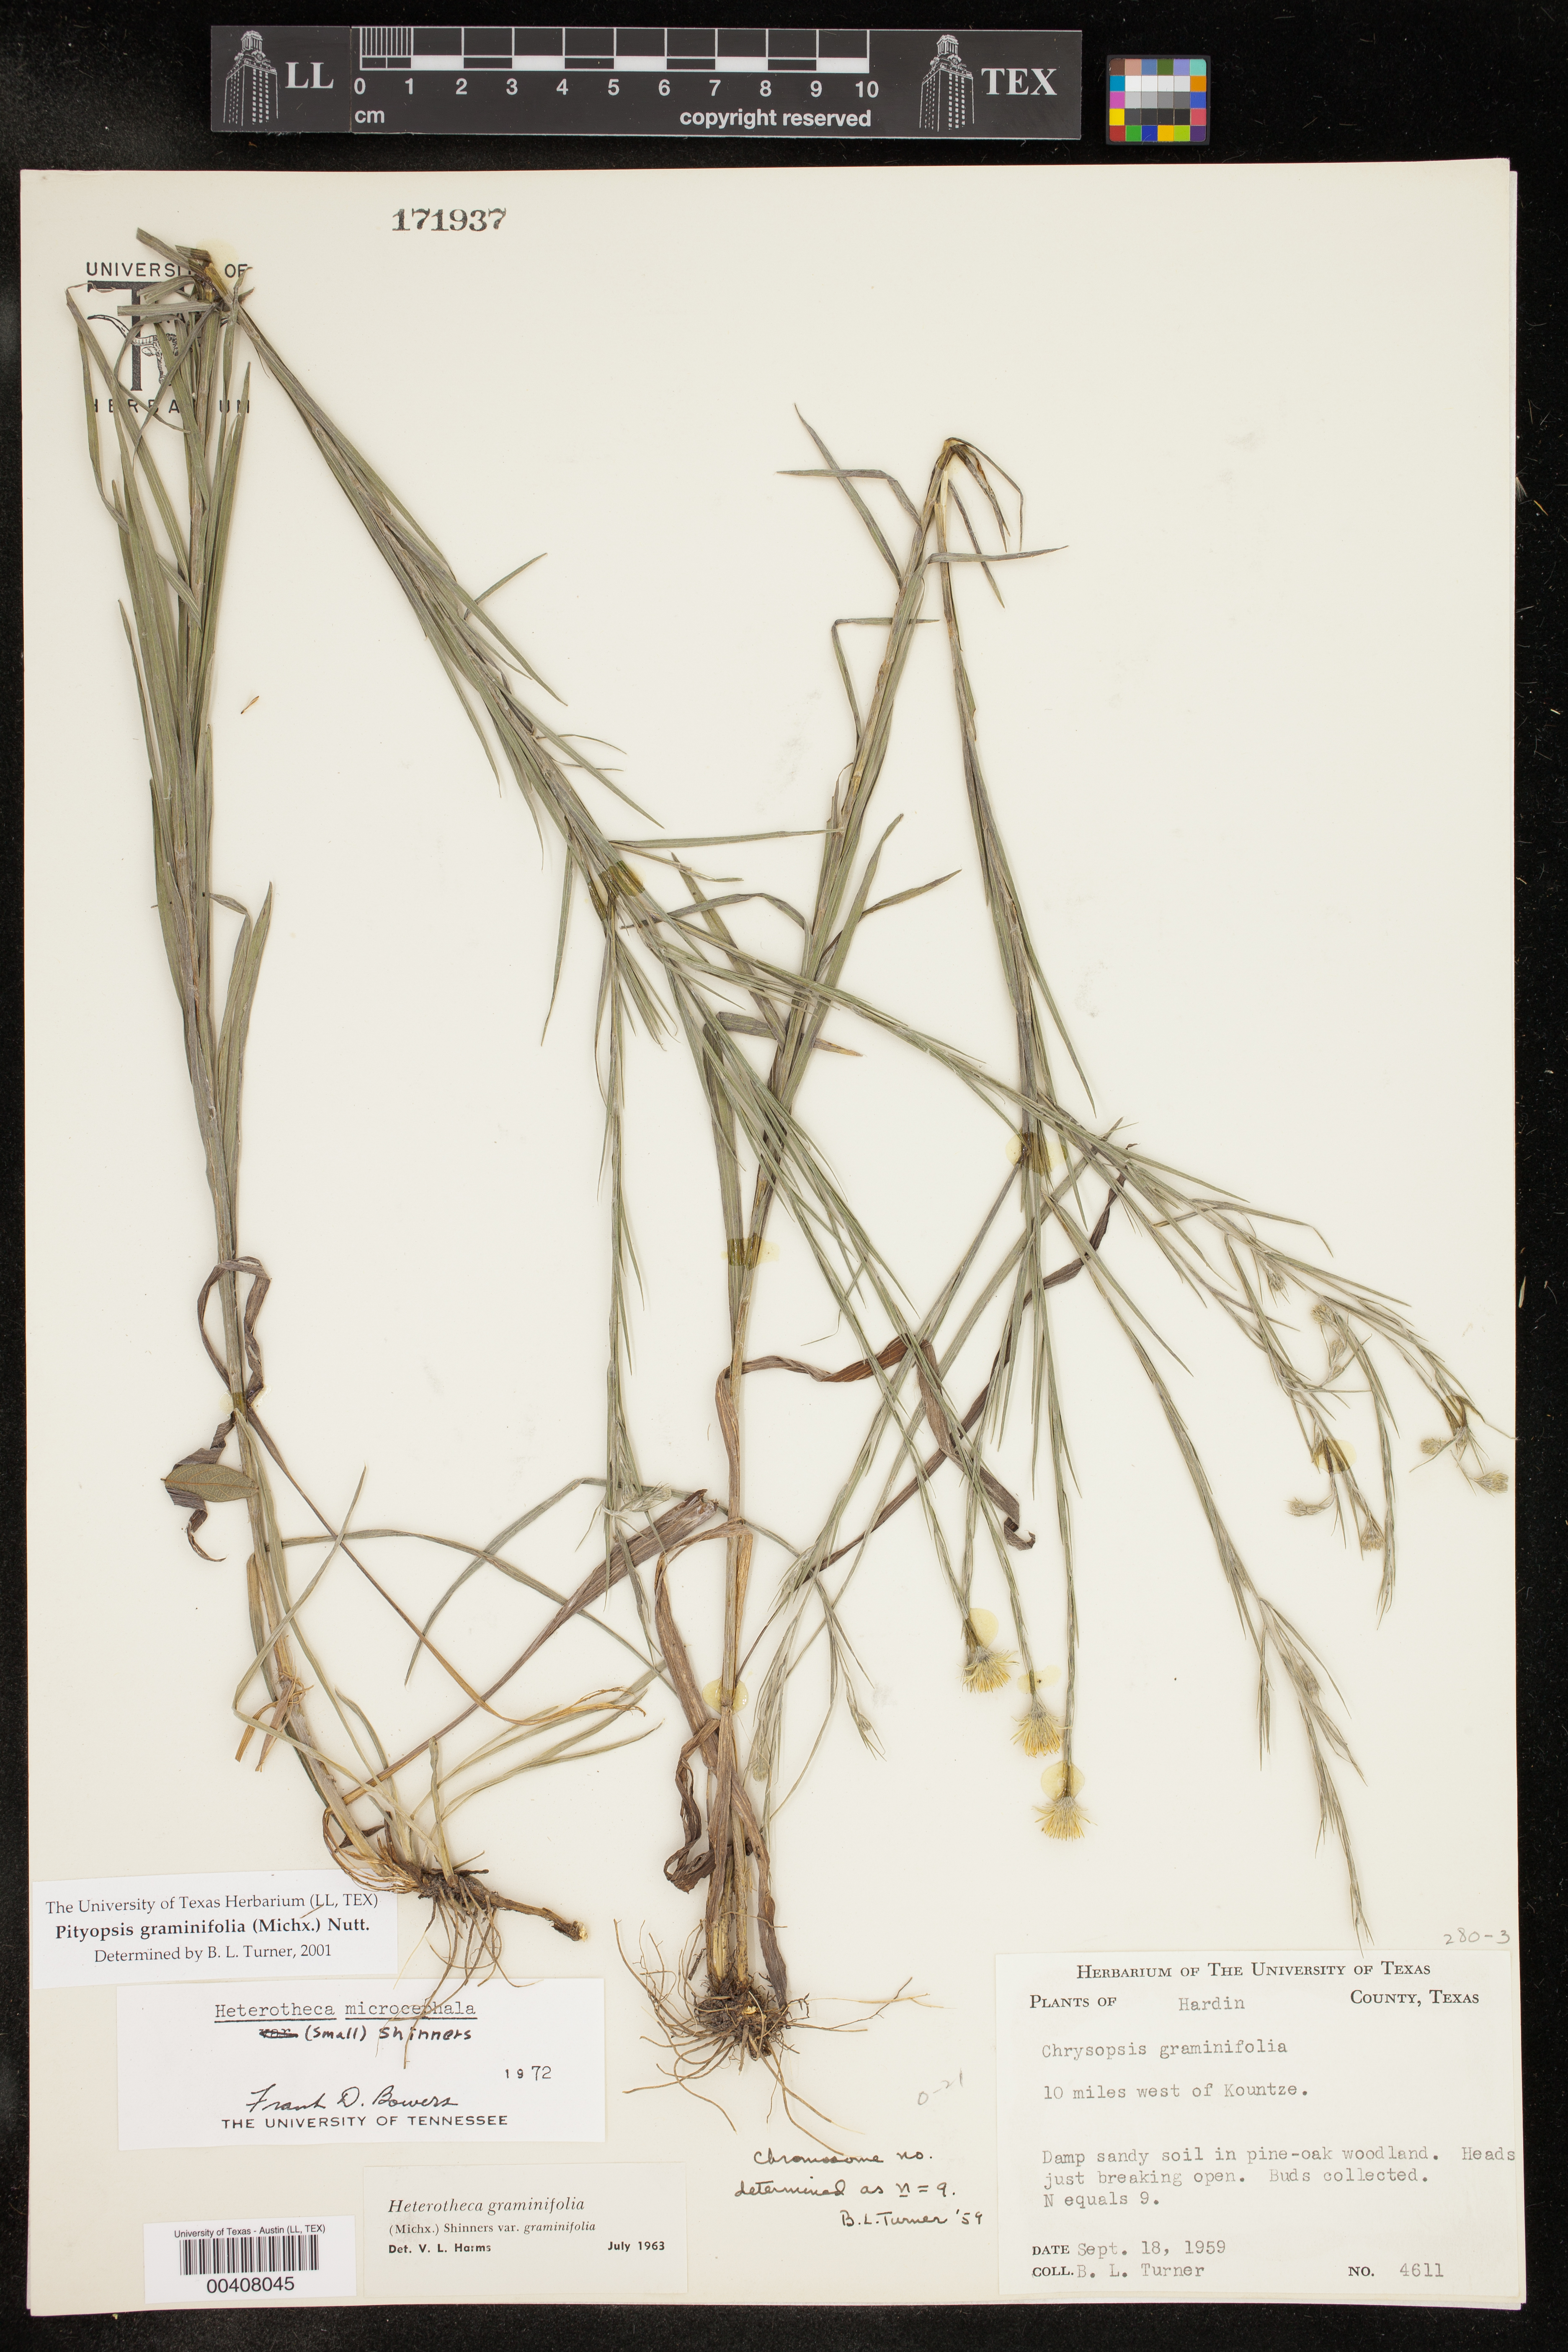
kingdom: Plantae
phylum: Tracheophyta
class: Magnoliopsida
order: Asterales
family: Asteraceae
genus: Pityopsis
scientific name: Pityopsis graminifolia
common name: Grass-leaf golden-aster
